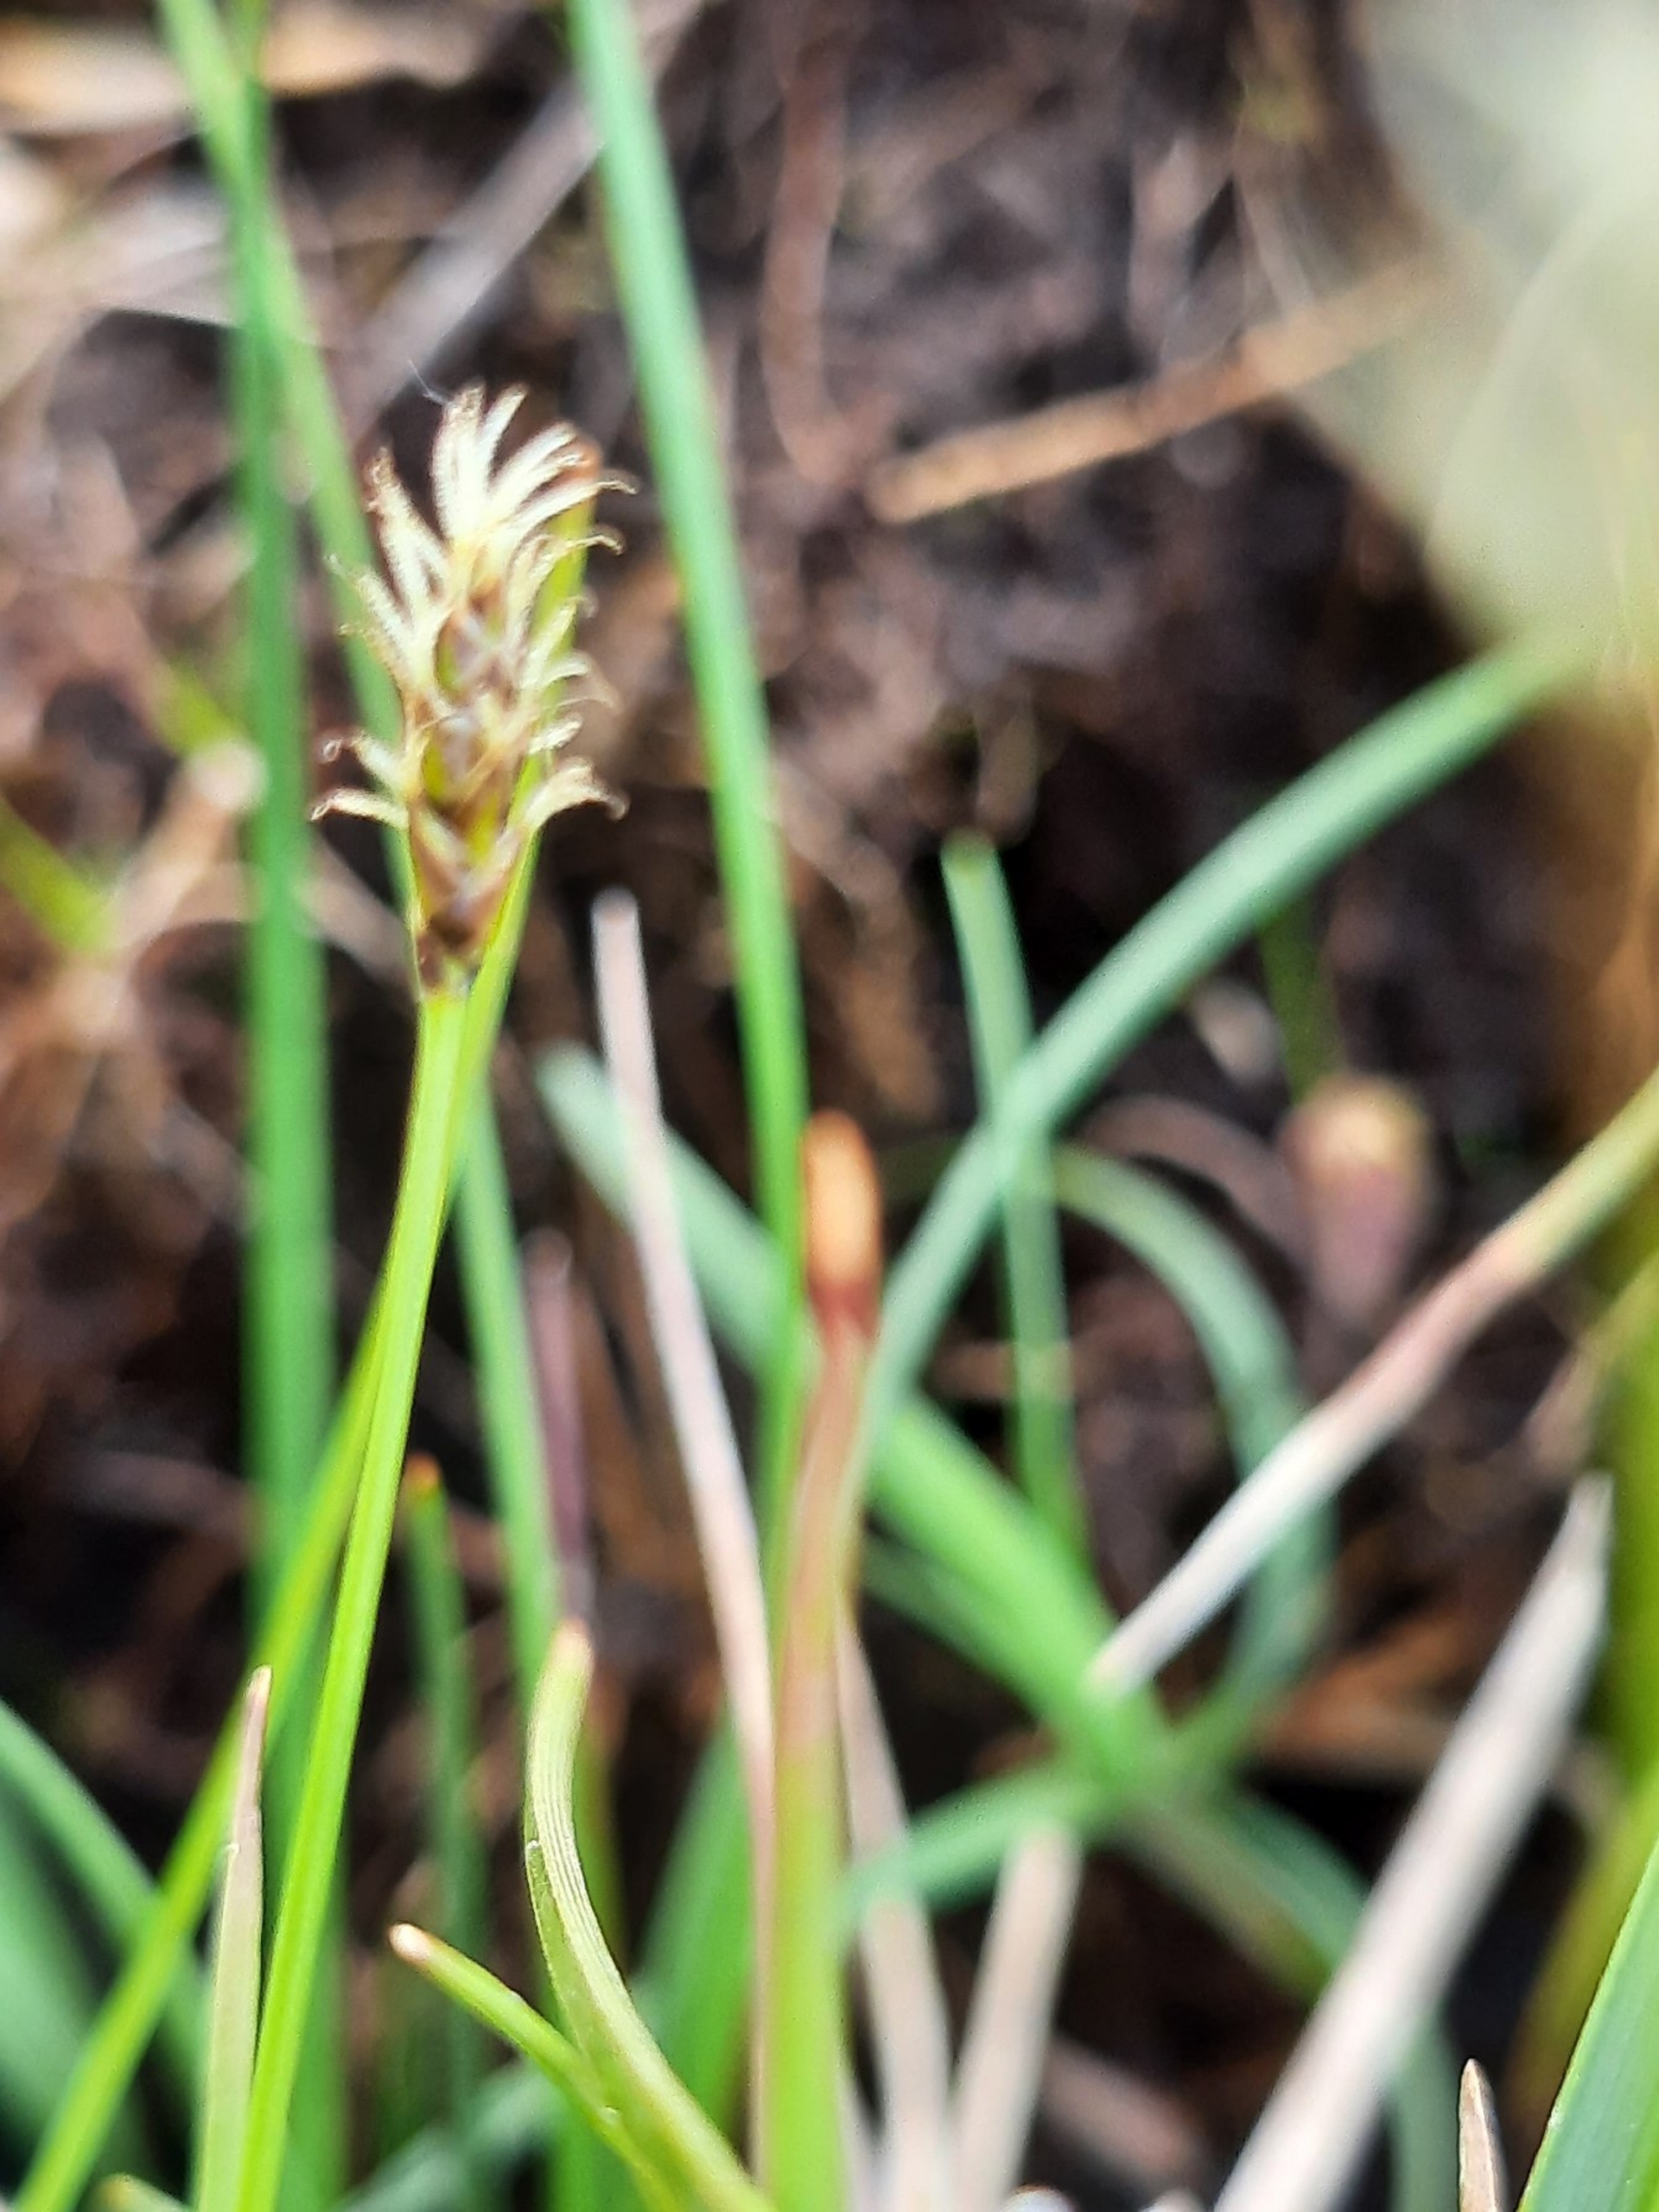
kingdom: Plantae
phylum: Tracheophyta
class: Liliopsida
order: Poales
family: Cyperaceae
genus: Carex
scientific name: Carex dioica
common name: Tvebo star
